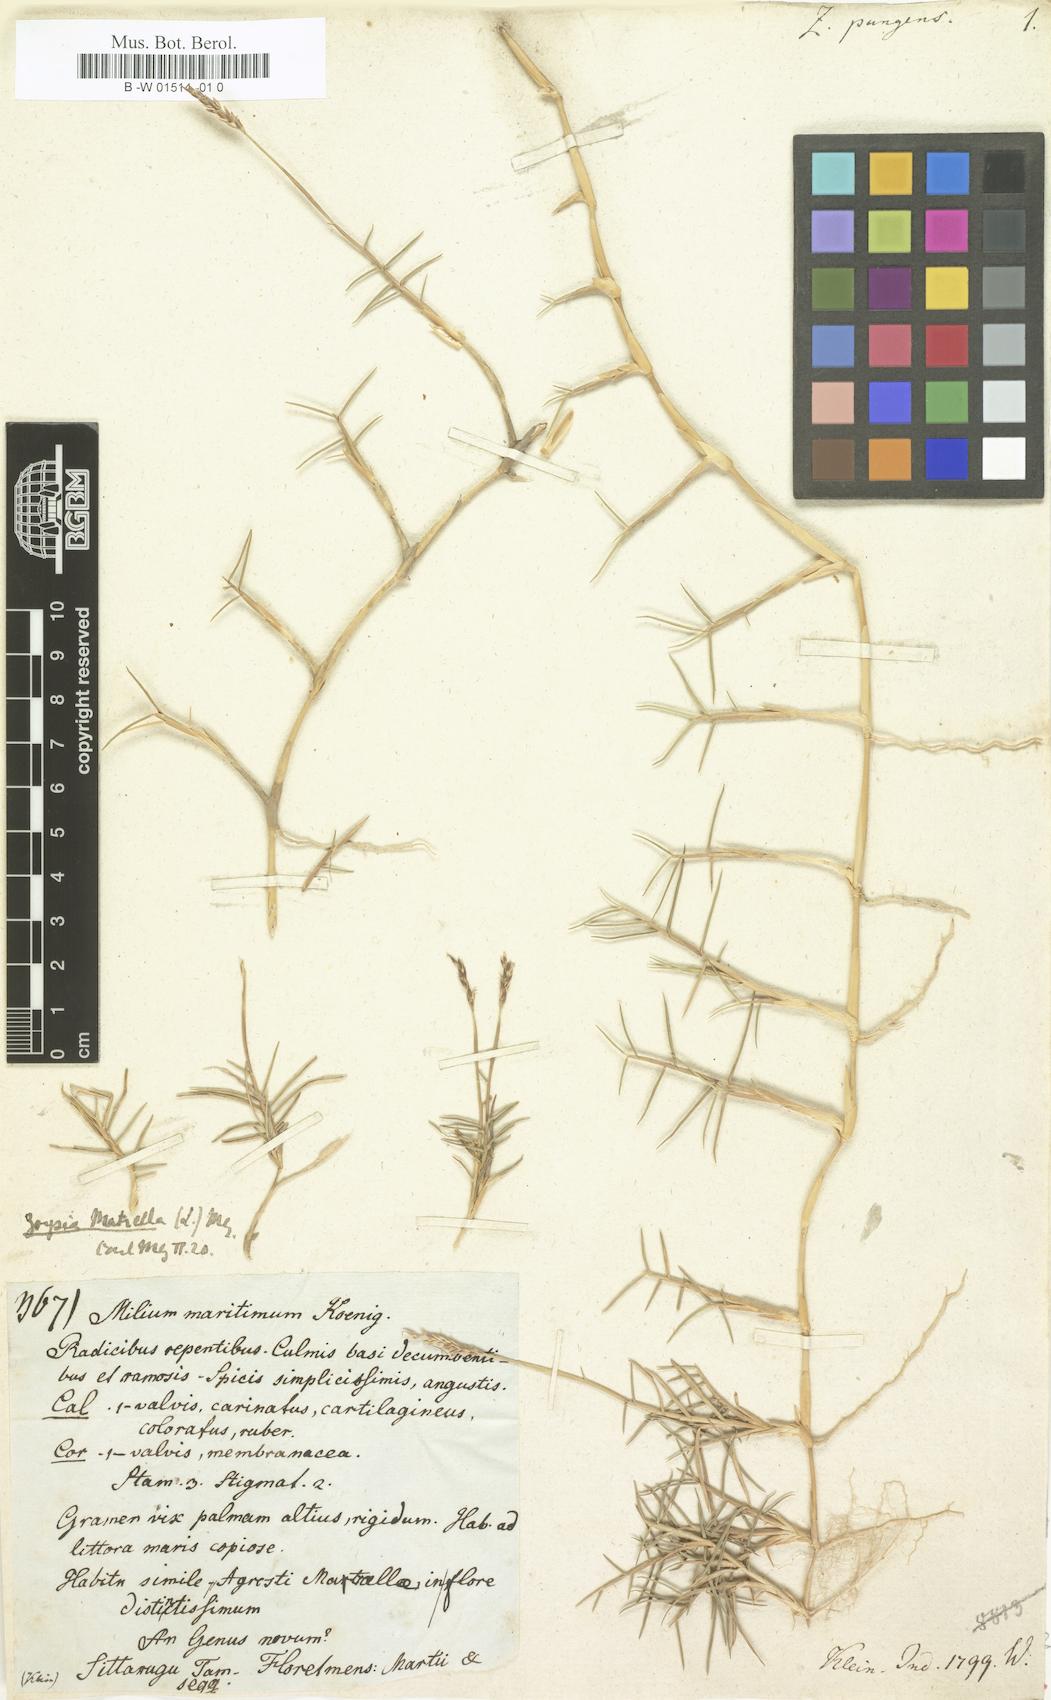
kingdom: Plantae
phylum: Tracheophyta
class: Liliopsida
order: Poales
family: Poaceae
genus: Zoysia
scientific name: Zoysia matrella
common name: Manila grass
